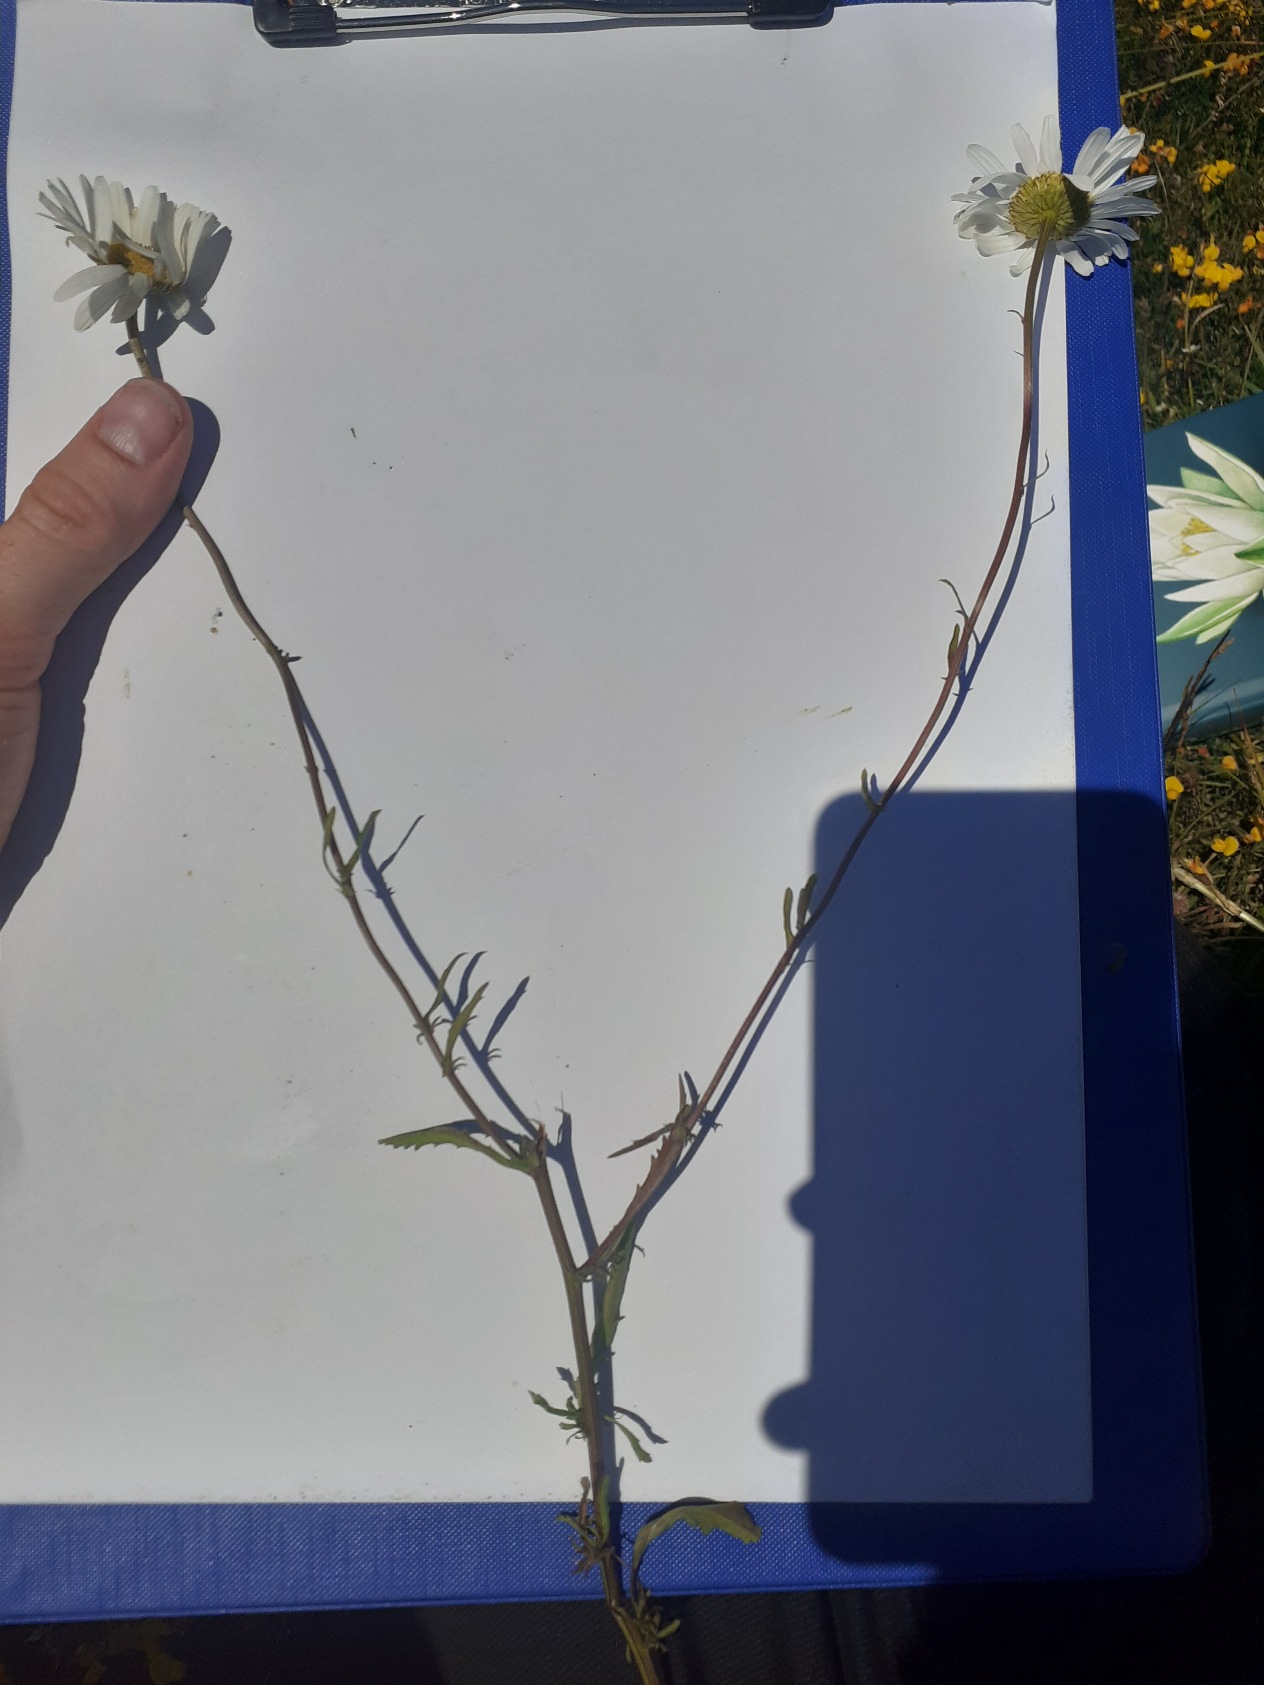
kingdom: Plantae
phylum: Tracheophyta
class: Magnoliopsida
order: Asterales
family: Asteraceae
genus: Leucanthemum
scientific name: Leucanthemum vulgare
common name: Hvid okseøje
